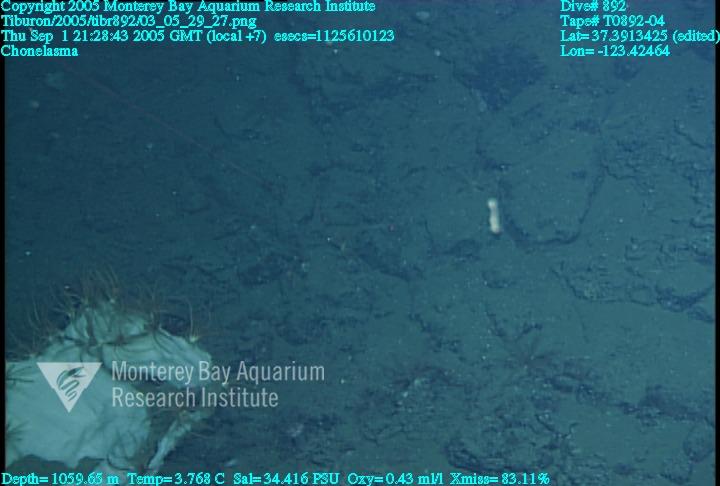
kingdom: Animalia
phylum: Porifera
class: Hexactinellida
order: Sceptrulophora
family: Euretidae
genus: Chonelasma
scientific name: Chonelasma
